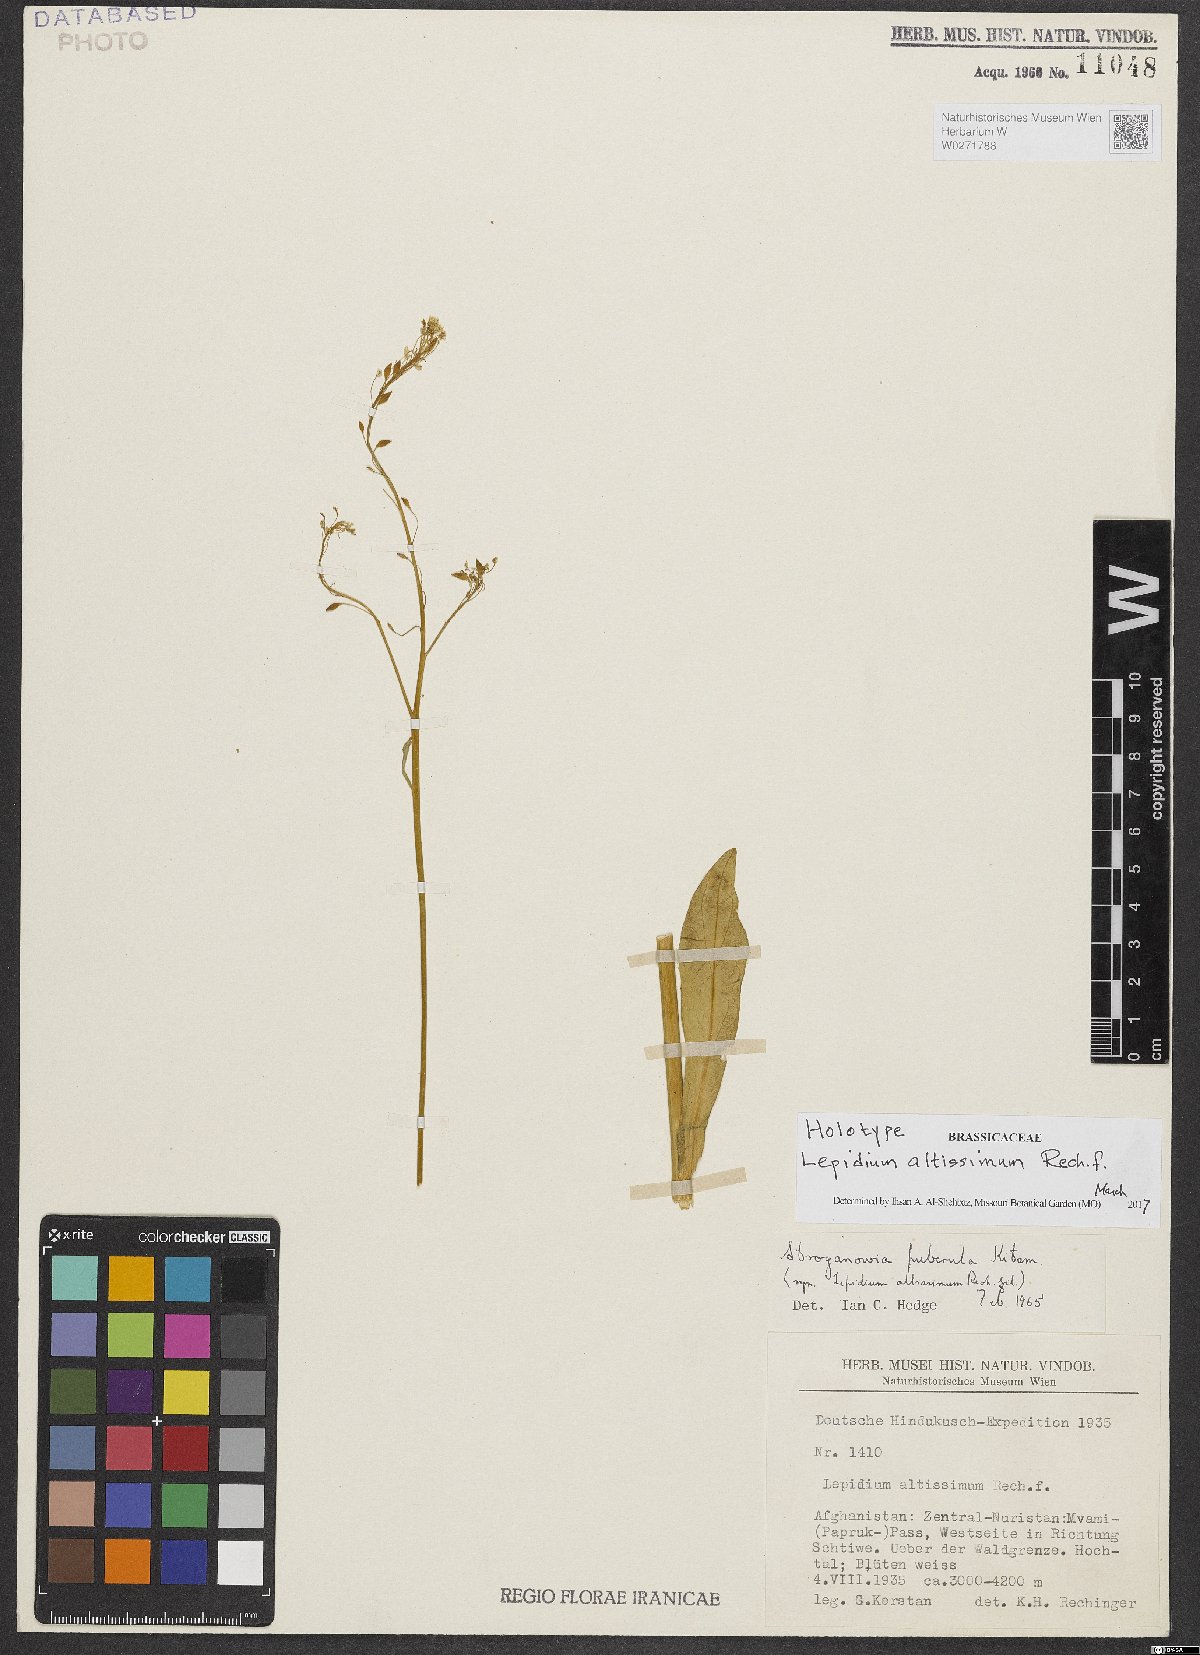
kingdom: Plantae
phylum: Tracheophyta
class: Magnoliopsida
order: Brassicales
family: Brassicaceae
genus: Lepidium
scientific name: Lepidium altissimum
